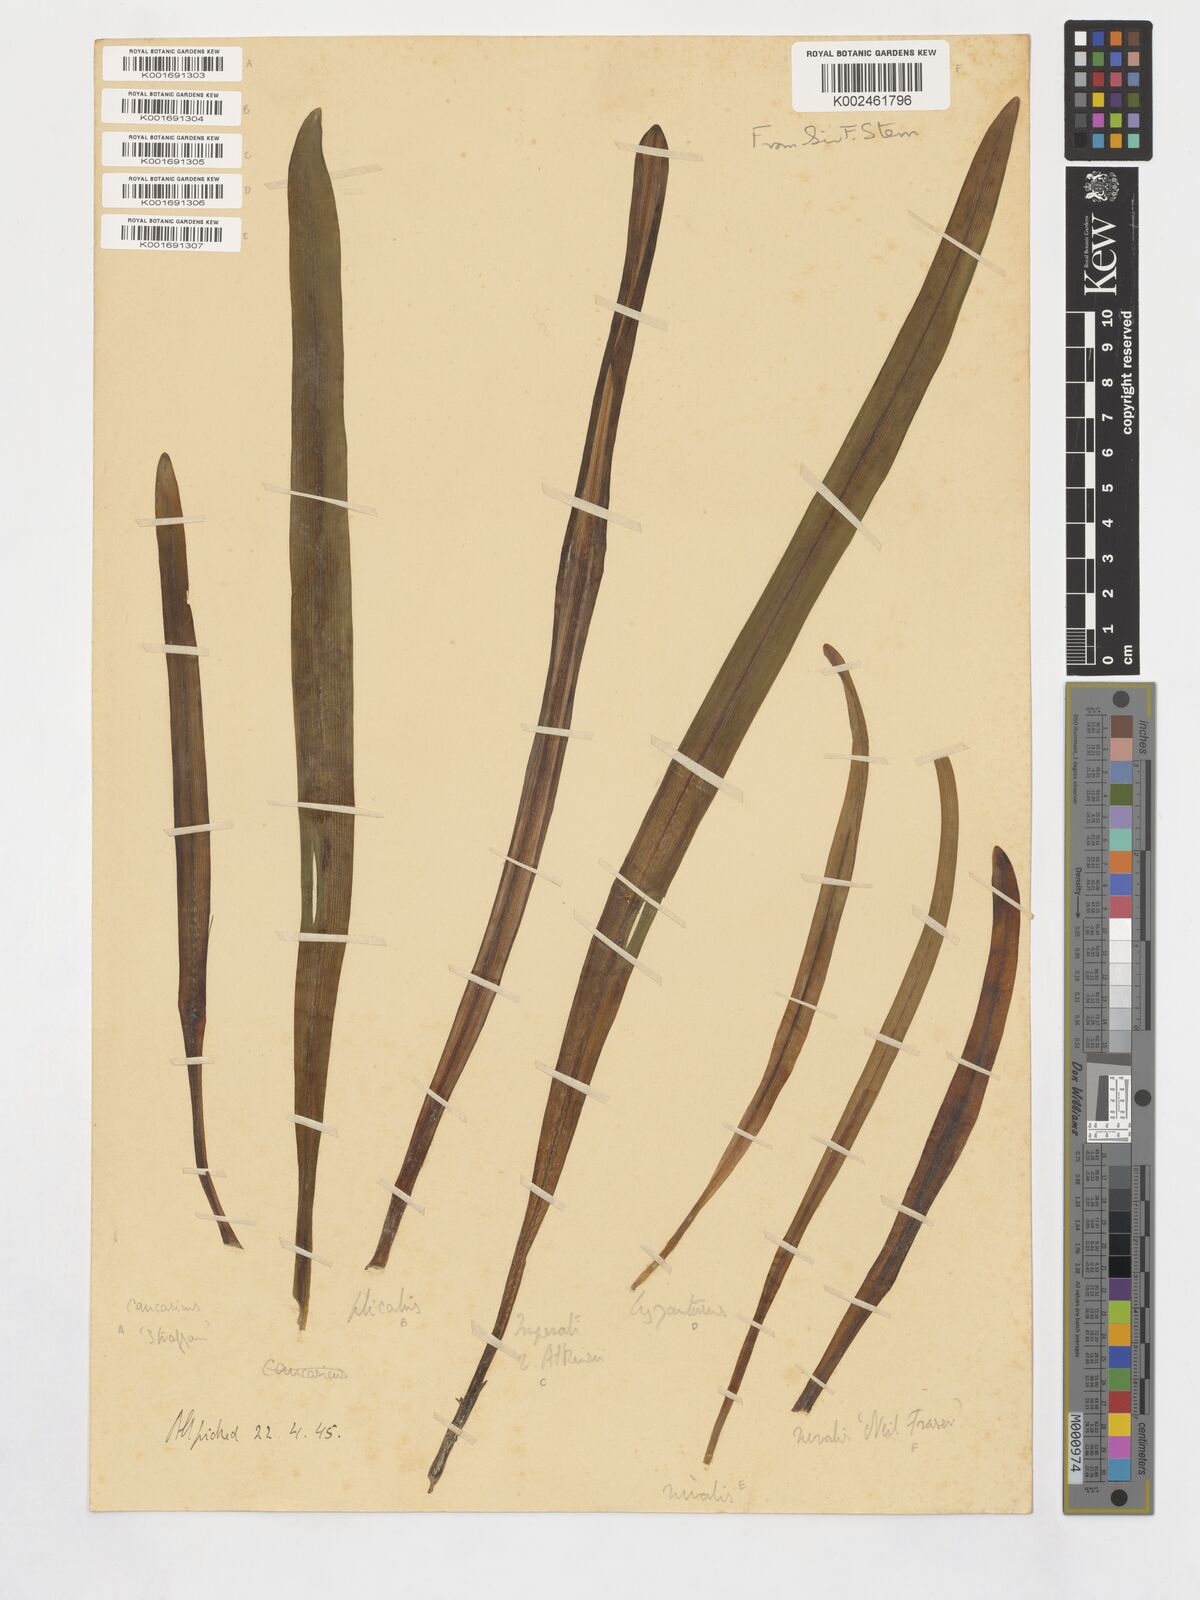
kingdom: Plantae
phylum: Tracheophyta
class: Liliopsida
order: Asparagales
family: Amaryllidaceae
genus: Galanthus
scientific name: Galanthus
